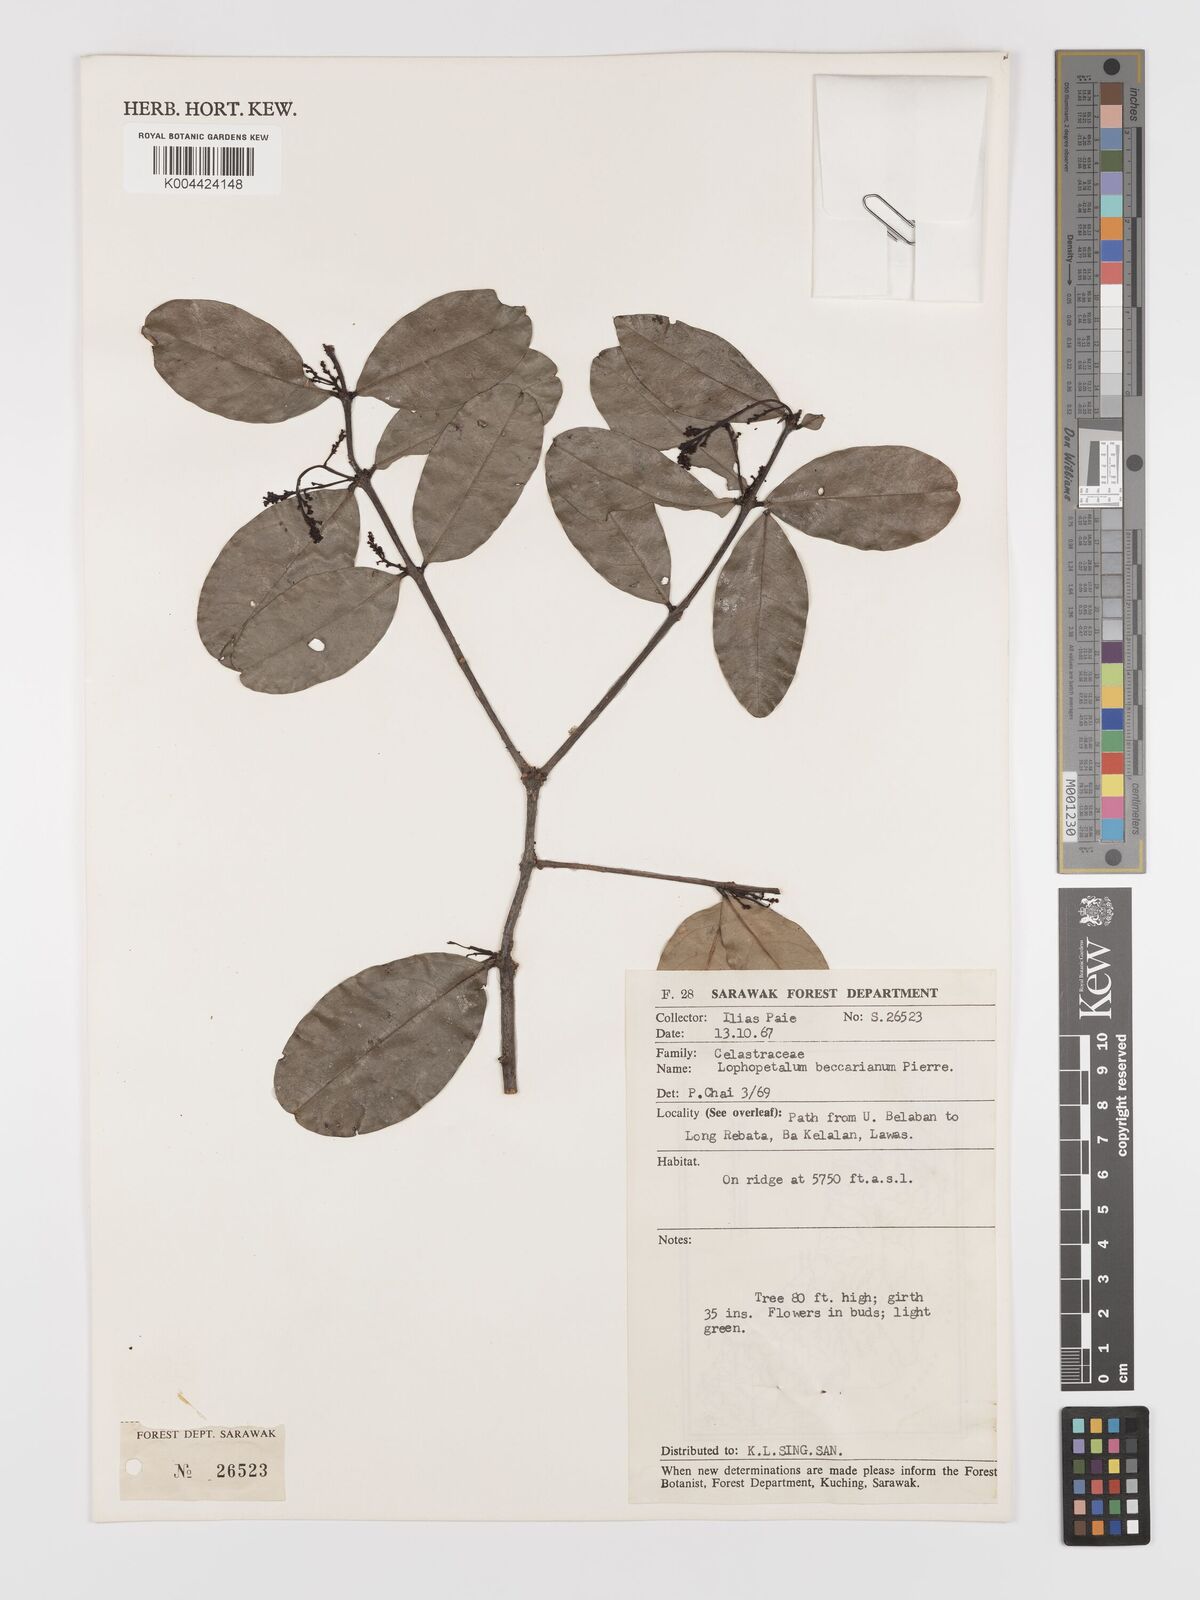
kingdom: Plantae
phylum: Tracheophyta
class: Magnoliopsida
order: Celastrales
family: Celastraceae
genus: Lophopetalum
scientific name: Lophopetalum beccarianum
